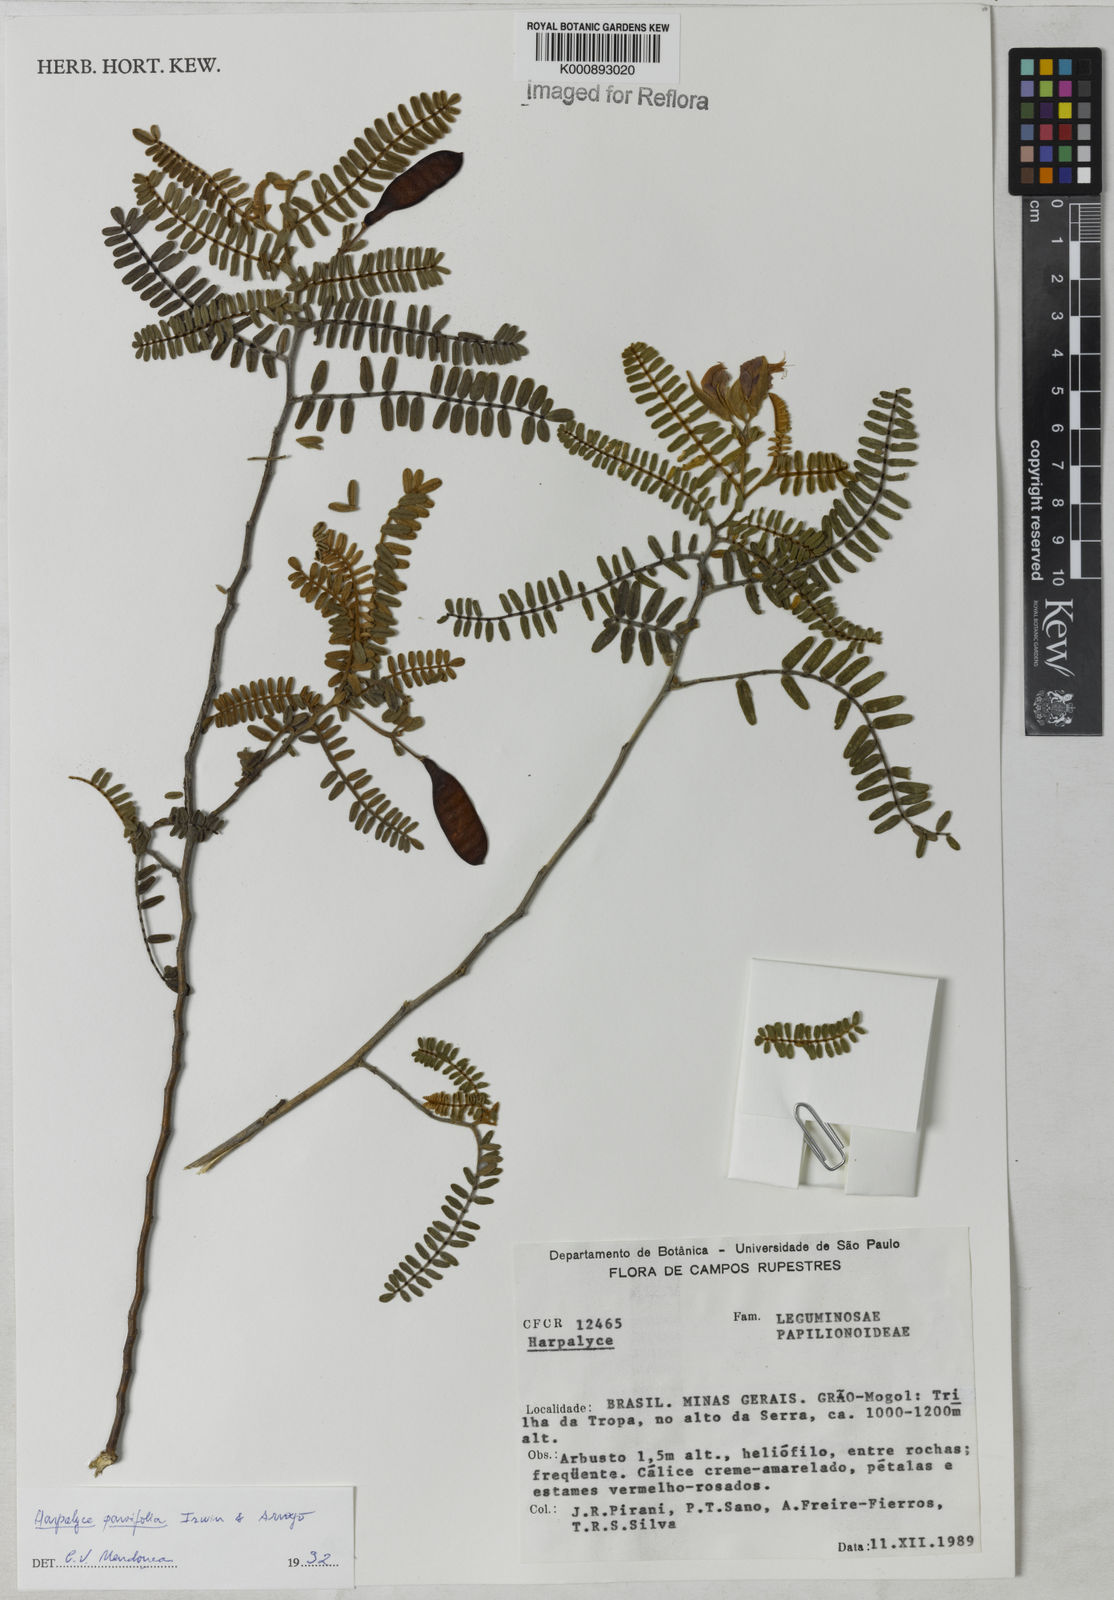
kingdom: Plantae
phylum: Tracheophyta
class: Magnoliopsida
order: Fabales
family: Fabaceae
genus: Harpalyce
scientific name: Harpalyce parvifolia
